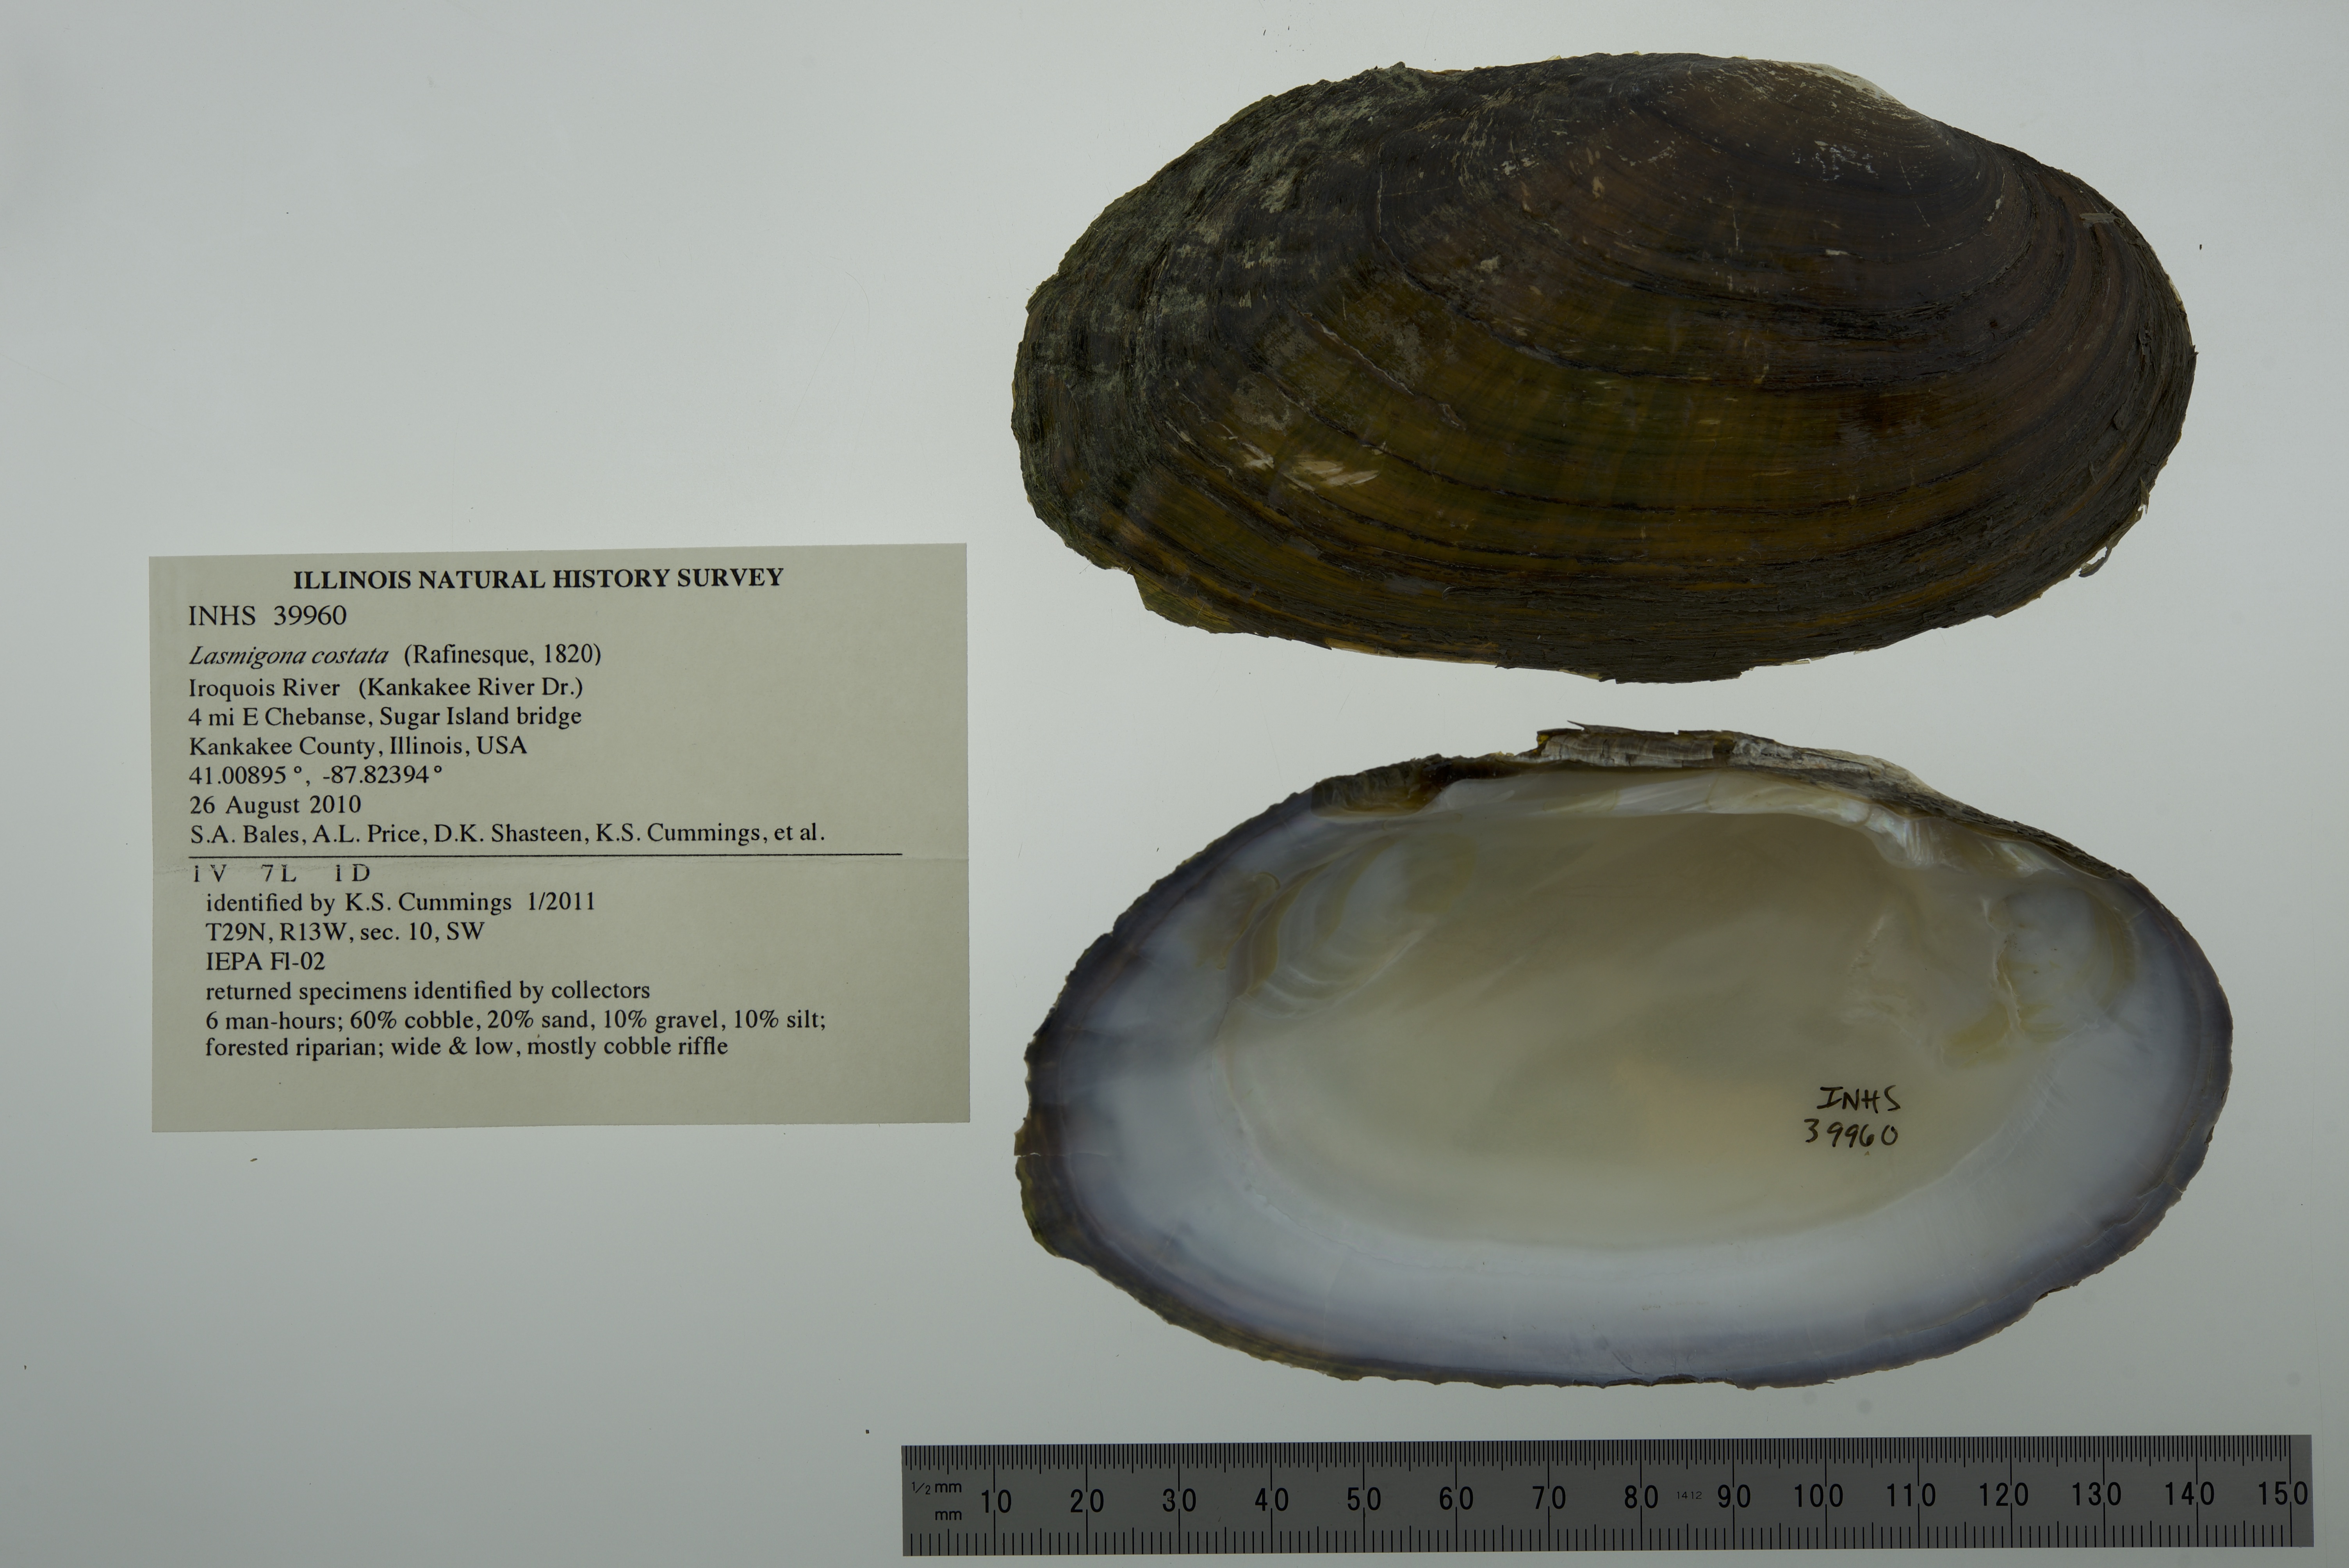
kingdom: Animalia
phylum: Mollusca
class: Bivalvia
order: Unionida
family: Unionidae
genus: Lasmigona
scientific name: Lasmigona costata
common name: Flutedshell
